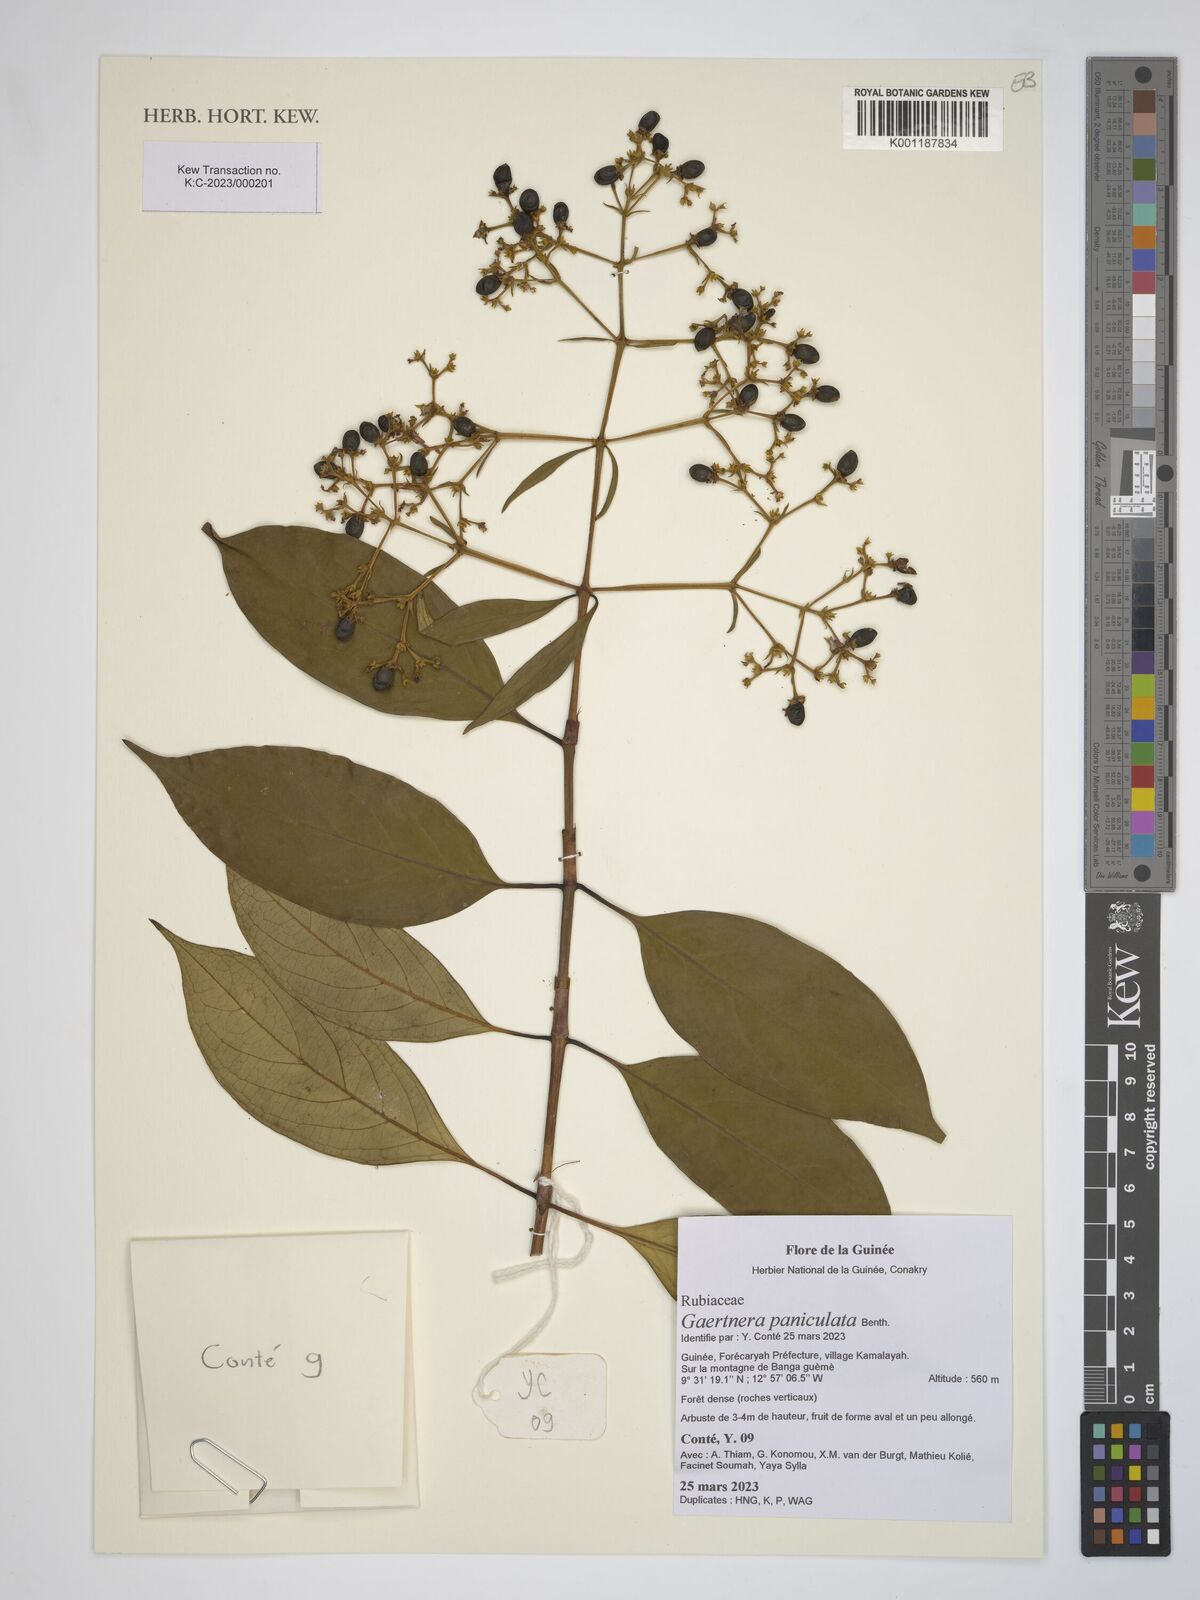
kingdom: Plantae
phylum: Tracheophyta
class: Magnoliopsida
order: Gentianales
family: Rubiaceae
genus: Gaertnera
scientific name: Gaertnera paniculata
